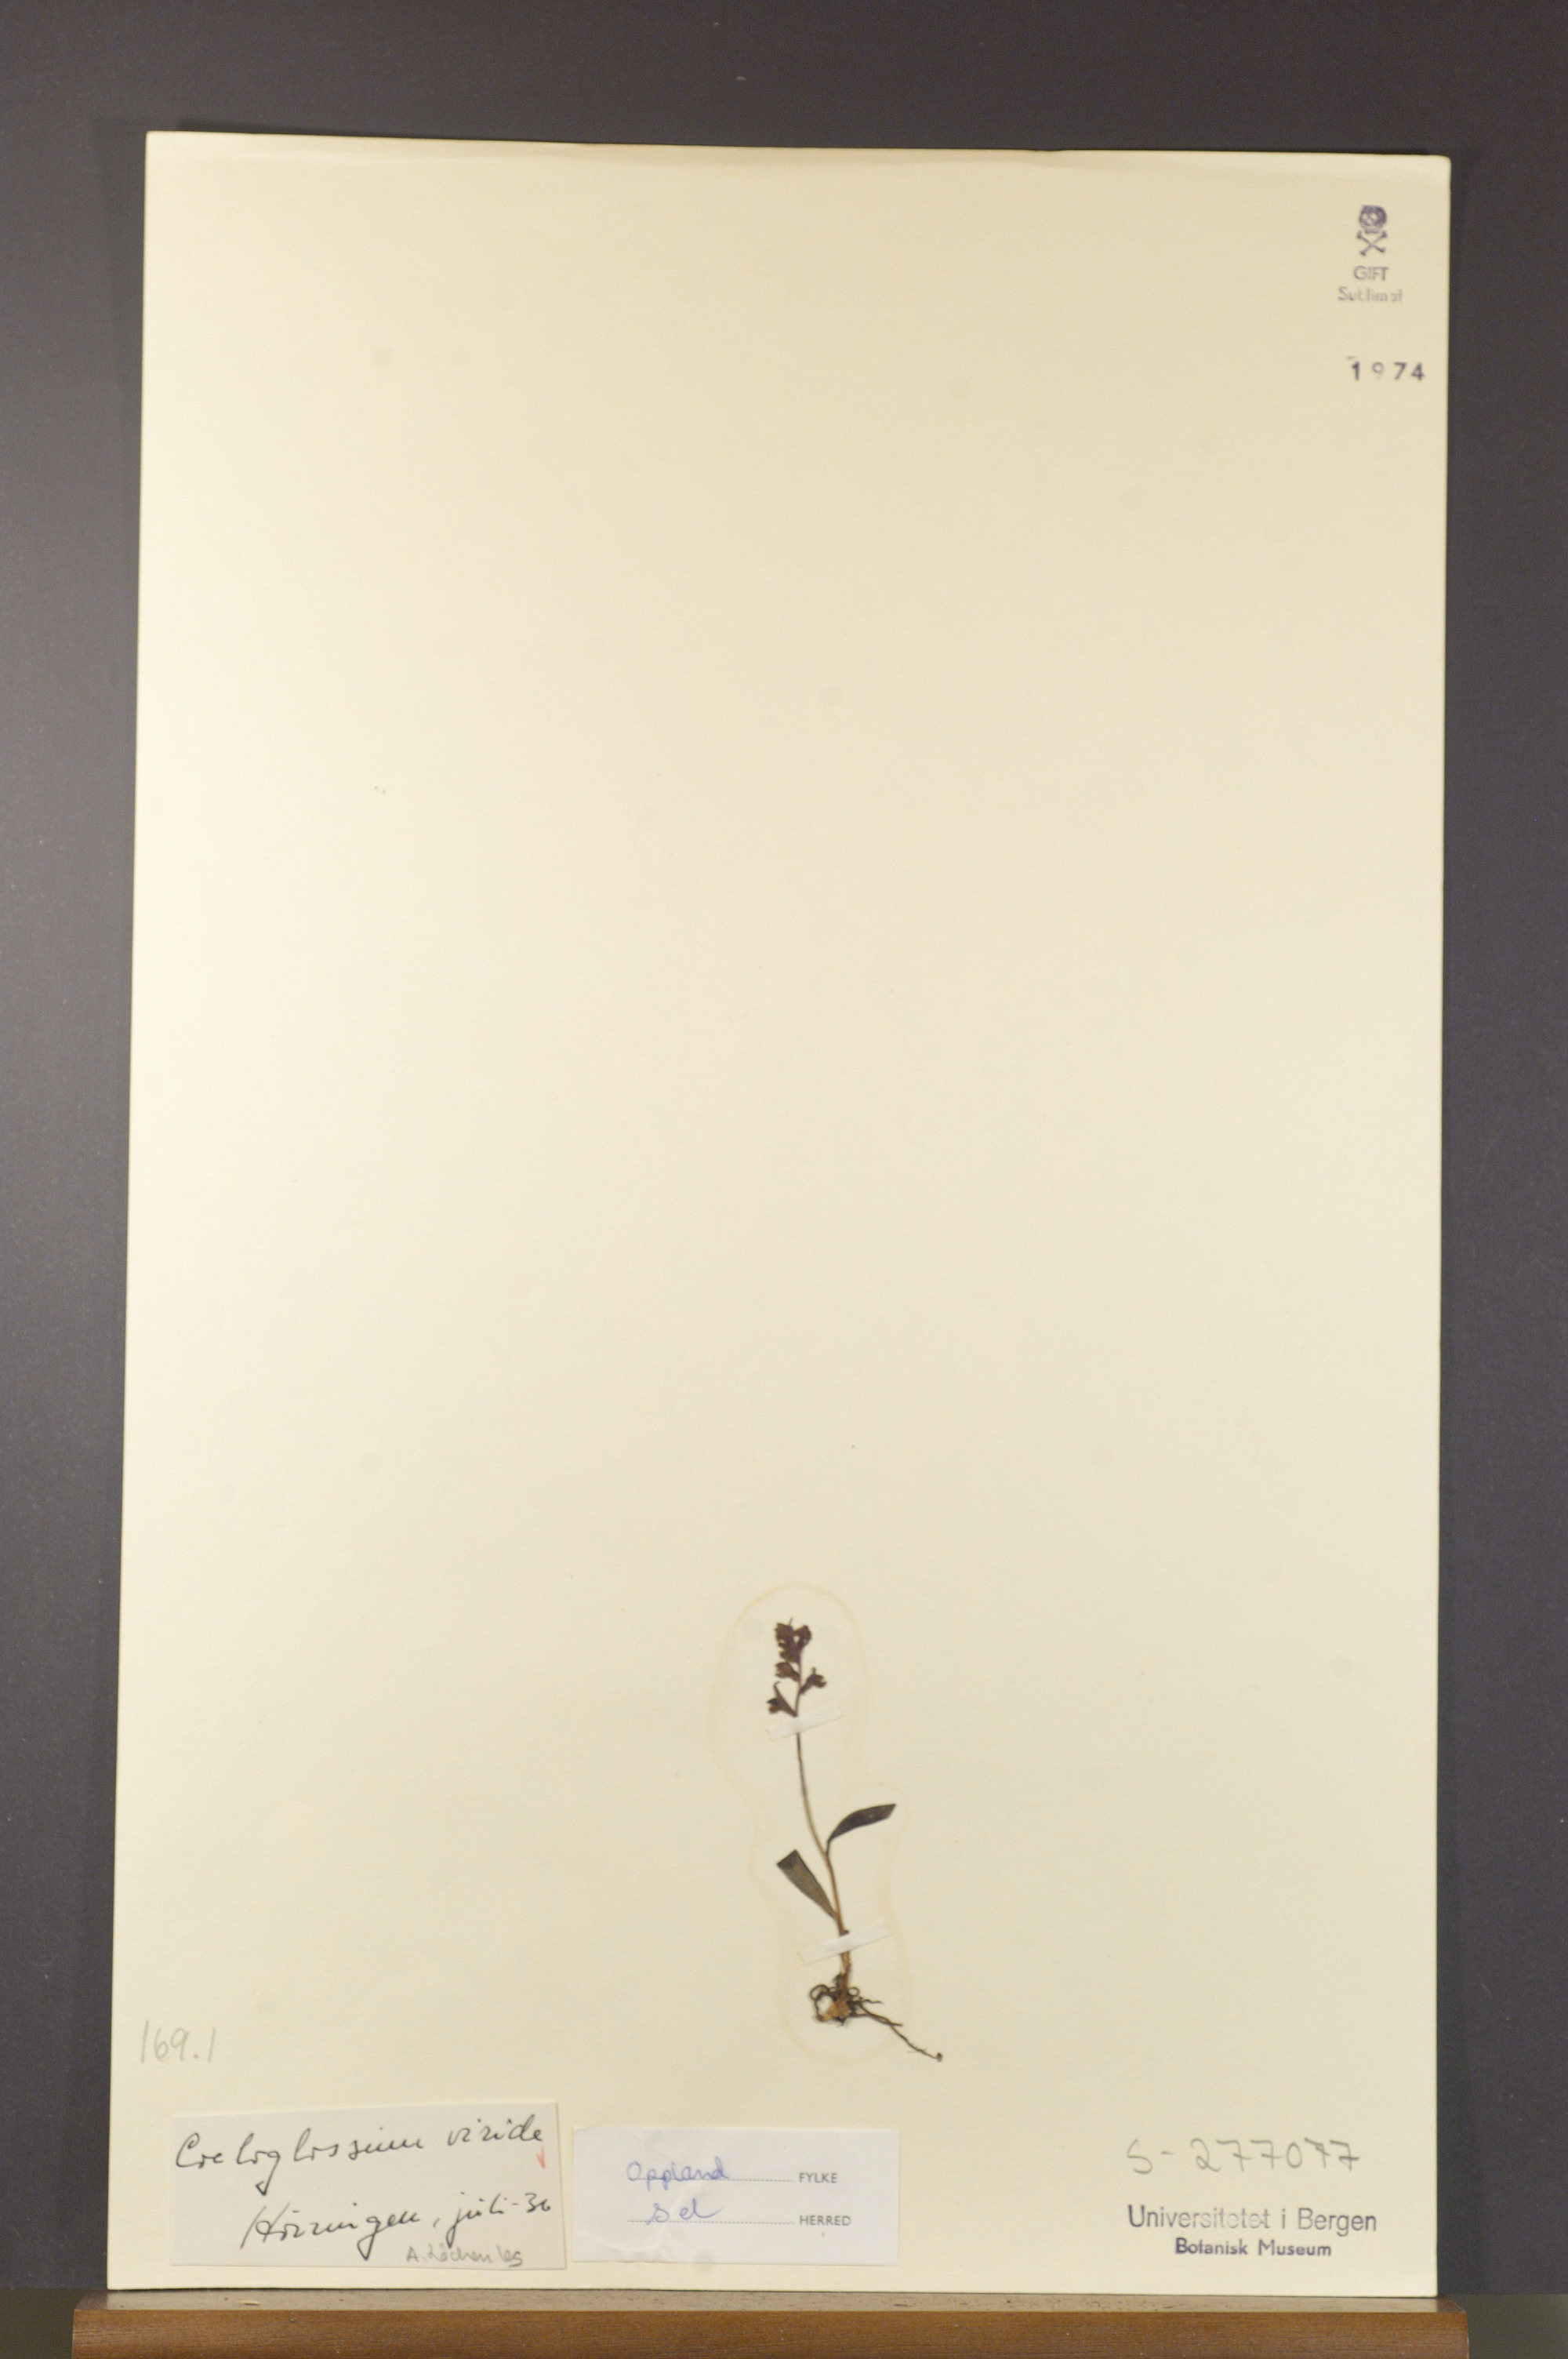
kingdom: Plantae
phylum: Tracheophyta
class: Liliopsida
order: Asparagales
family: Orchidaceae
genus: Dactylorhiza
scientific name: Dactylorhiza viridis
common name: Longbract frog orchid
